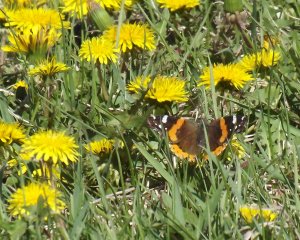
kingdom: Animalia
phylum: Arthropoda
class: Insecta
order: Lepidoptera
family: Nymphalidae
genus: Vanessa
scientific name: Vanessa atalanta
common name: Red Admiral
